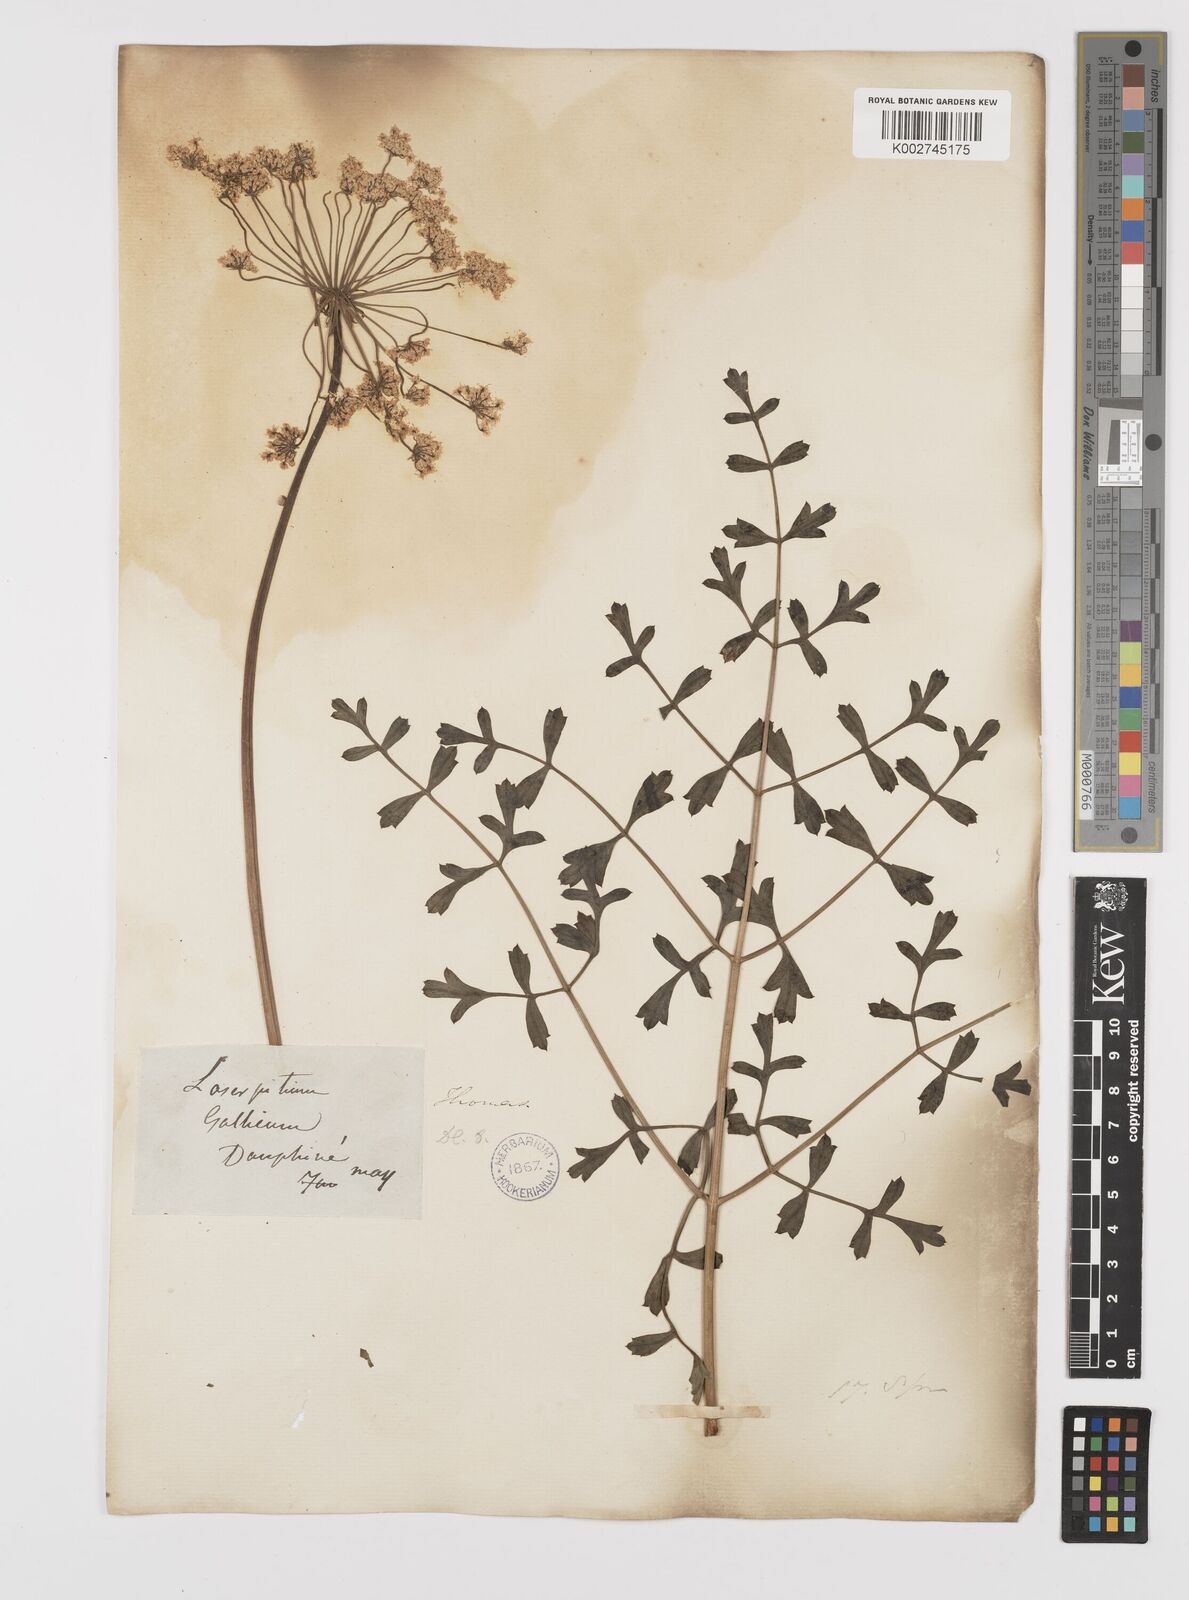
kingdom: Plantae
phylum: Tracheophyta
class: Magnoliopsida
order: Apiales
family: Apiaceae
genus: Laserpitium
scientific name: Laserpitium gallicum
